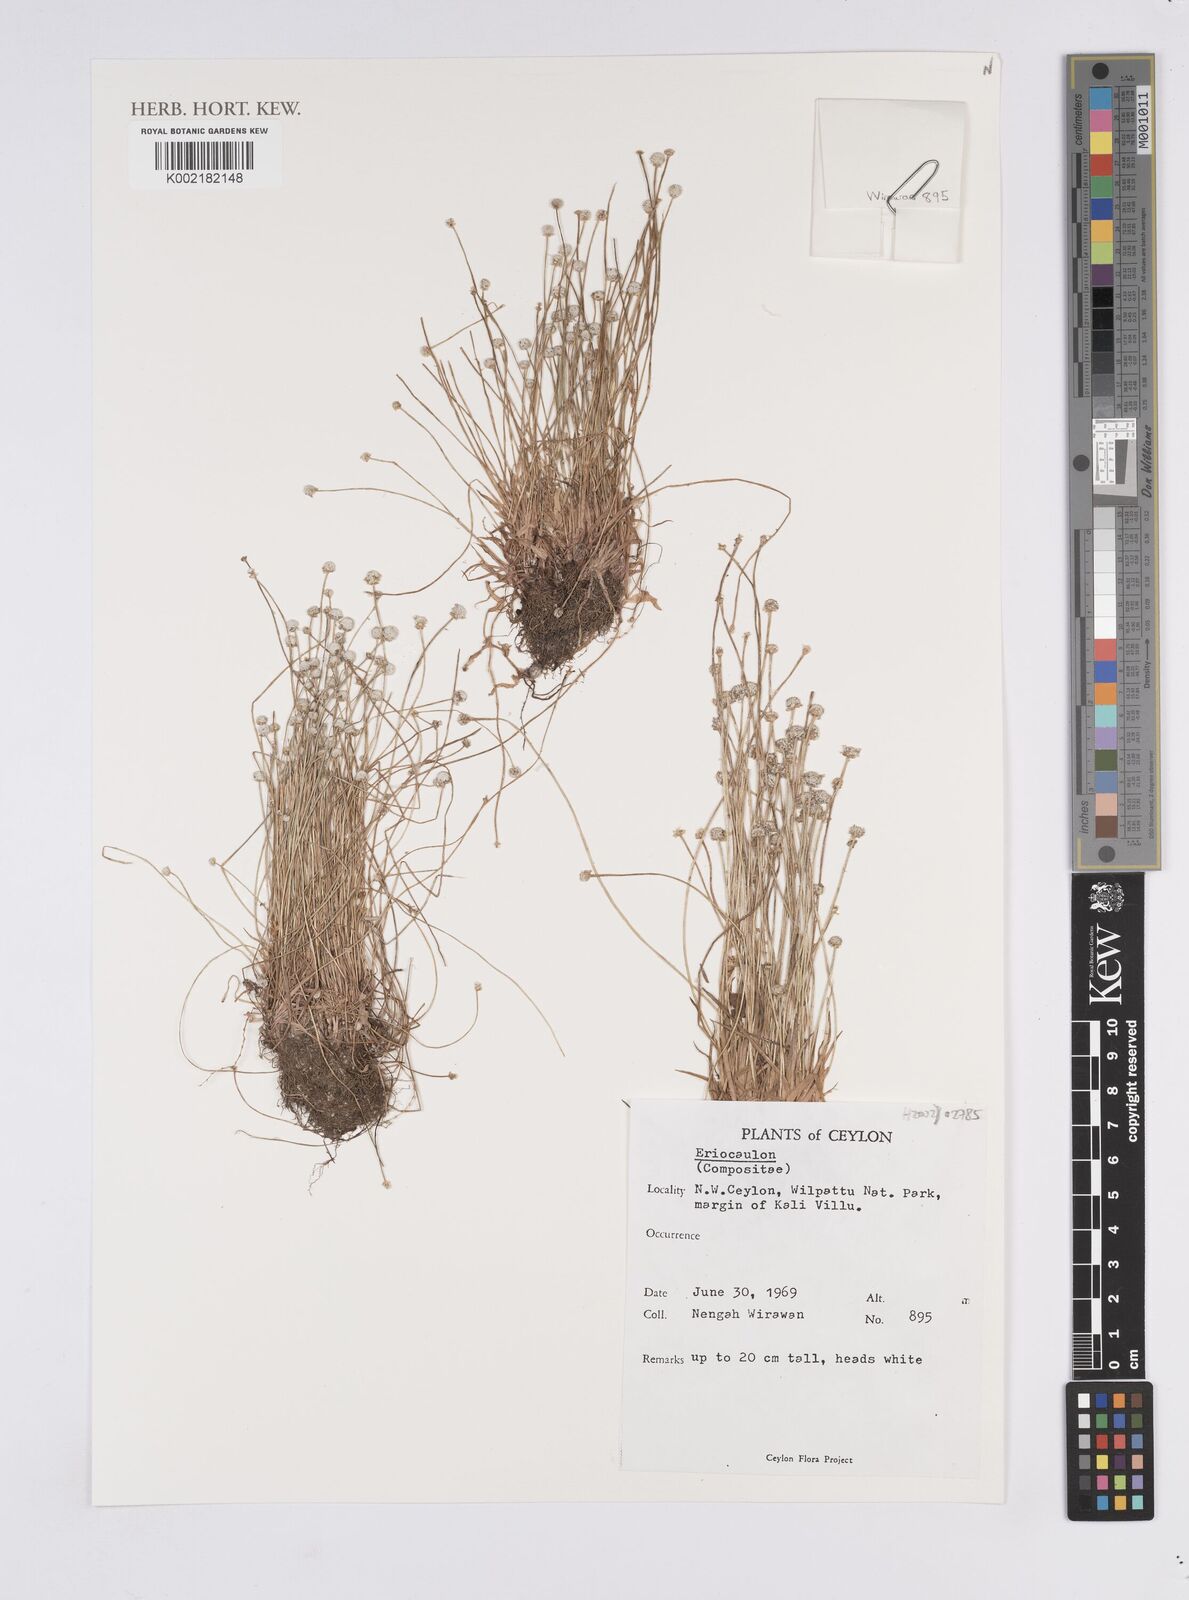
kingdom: Plantae
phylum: Tracheophyta
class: Liliopsida
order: Poales
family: Eriocaulaceae
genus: Eriocaulon
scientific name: Eriocaulon
